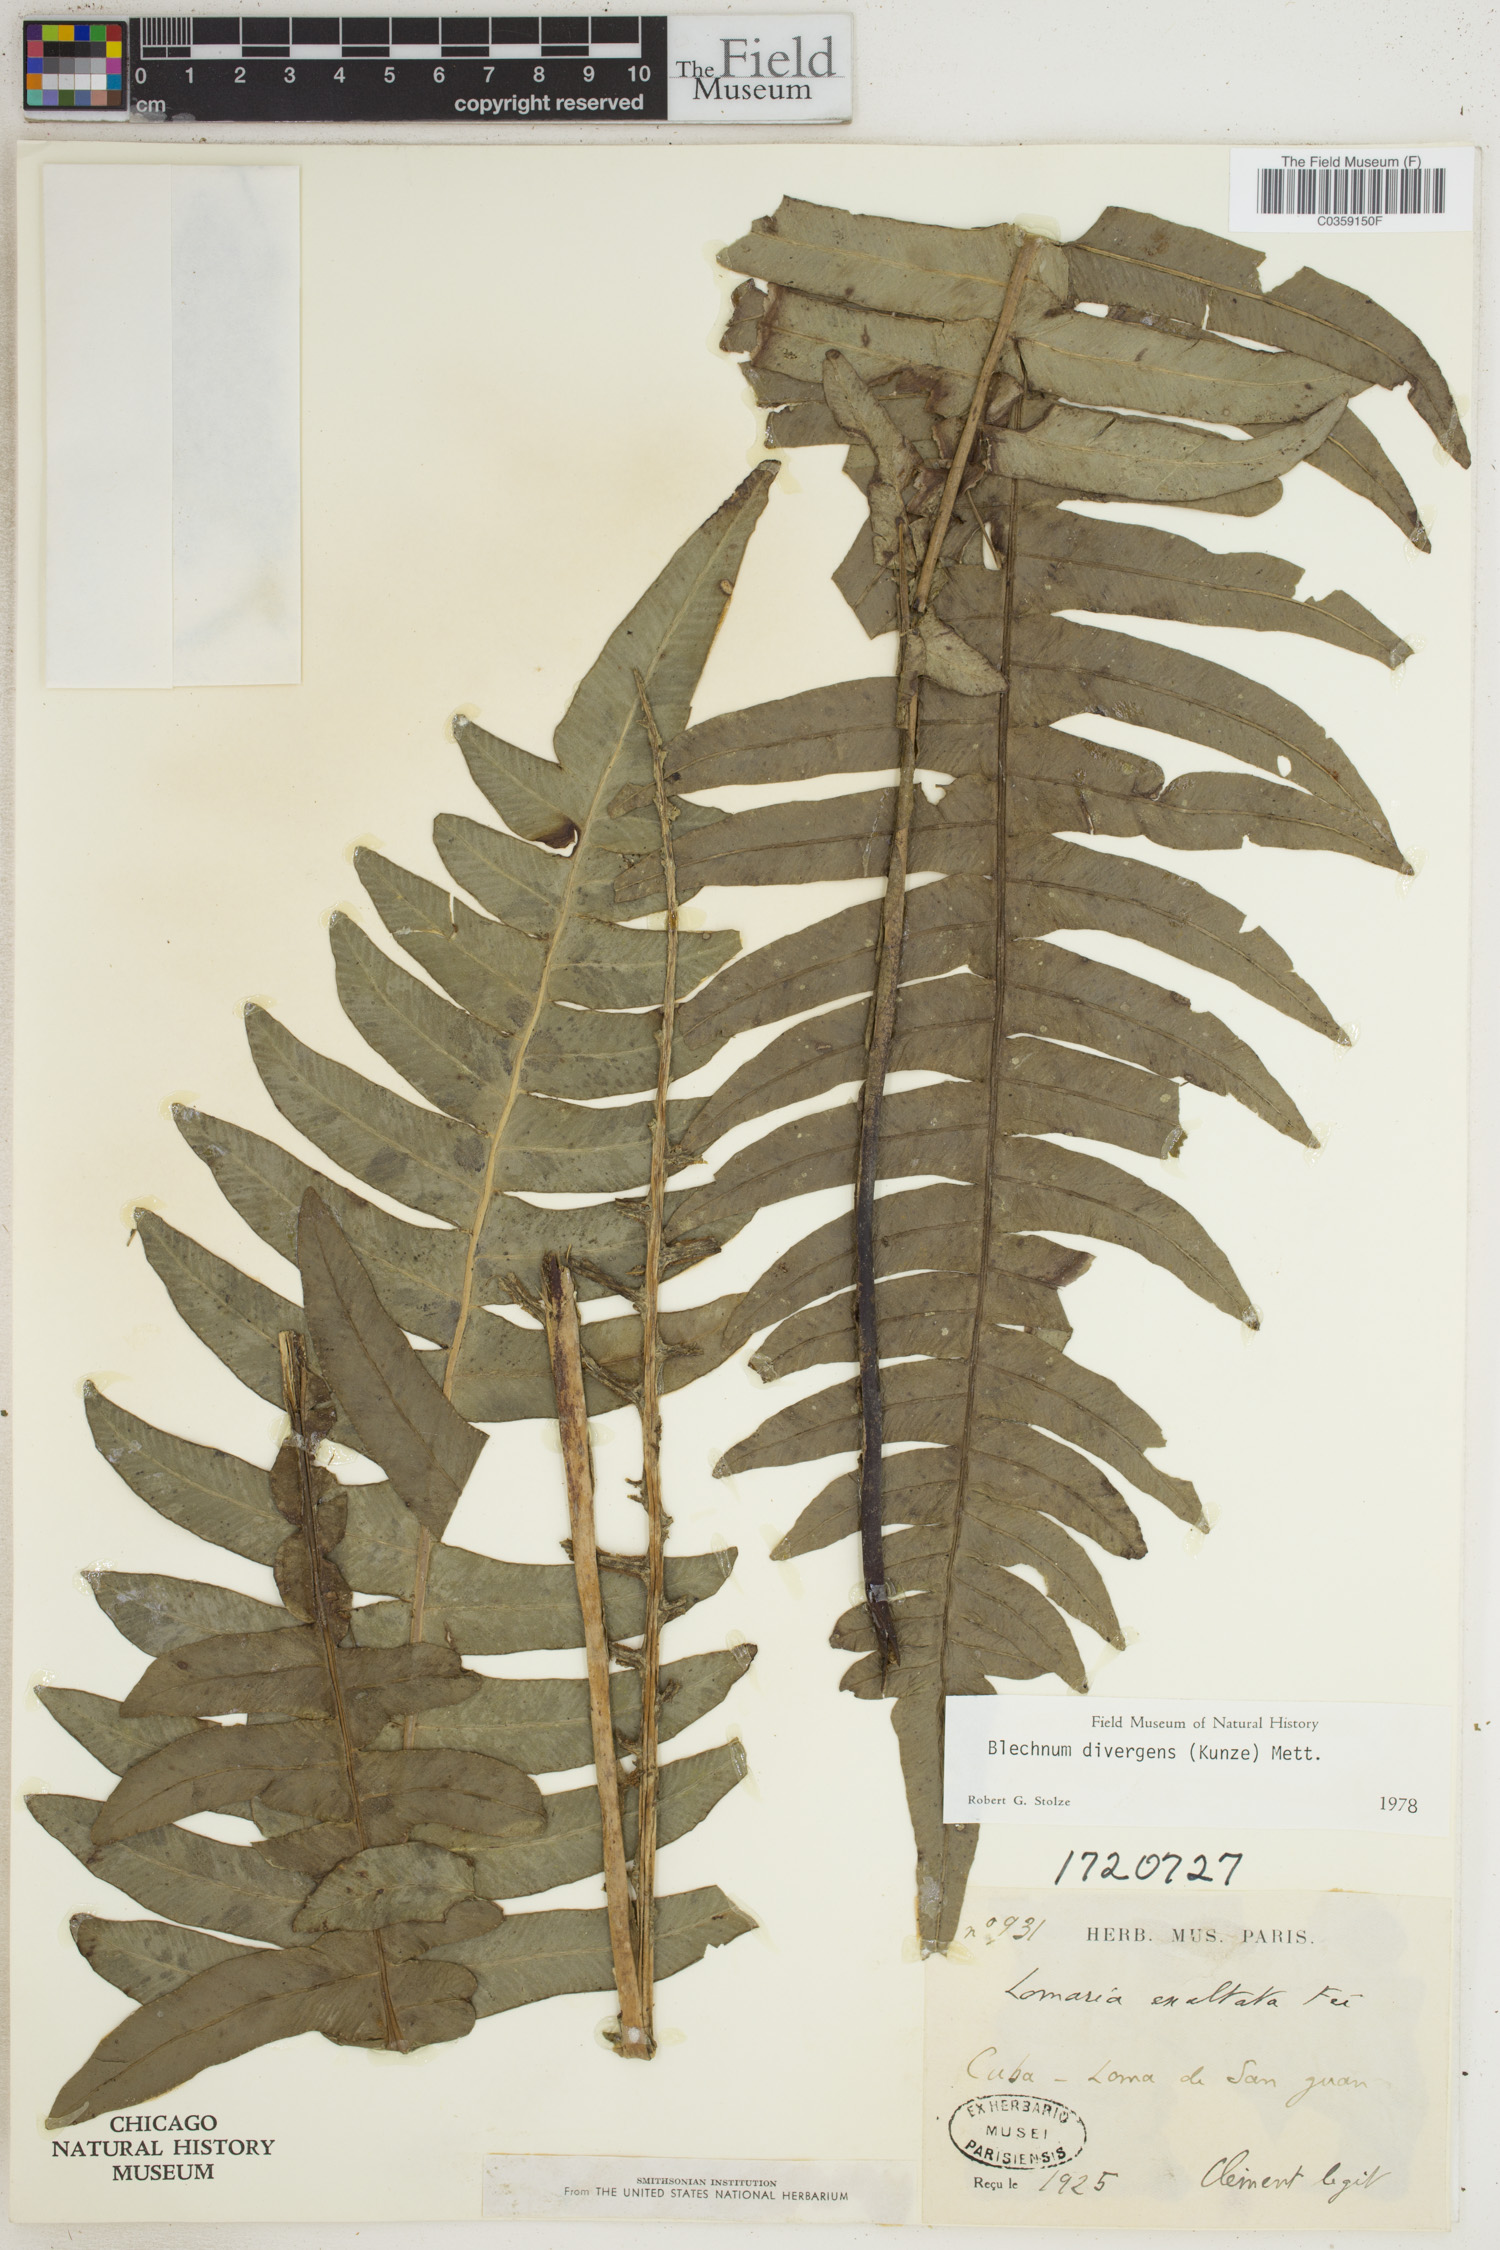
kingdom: Plantae
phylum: Tracheophyta
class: Polypodiopsida
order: Polypodiales
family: Blechnaceae
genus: Austroblechnum
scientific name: Austroblechnum divergens
